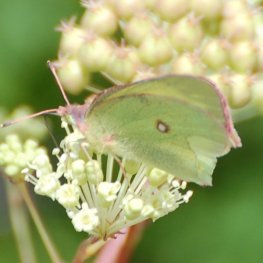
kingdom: Animalia
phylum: Arthropoda
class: Insecta
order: Lepidoptera
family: Pieridae
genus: Colias
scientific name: Colias interior
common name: Pink-edged Sulphur
